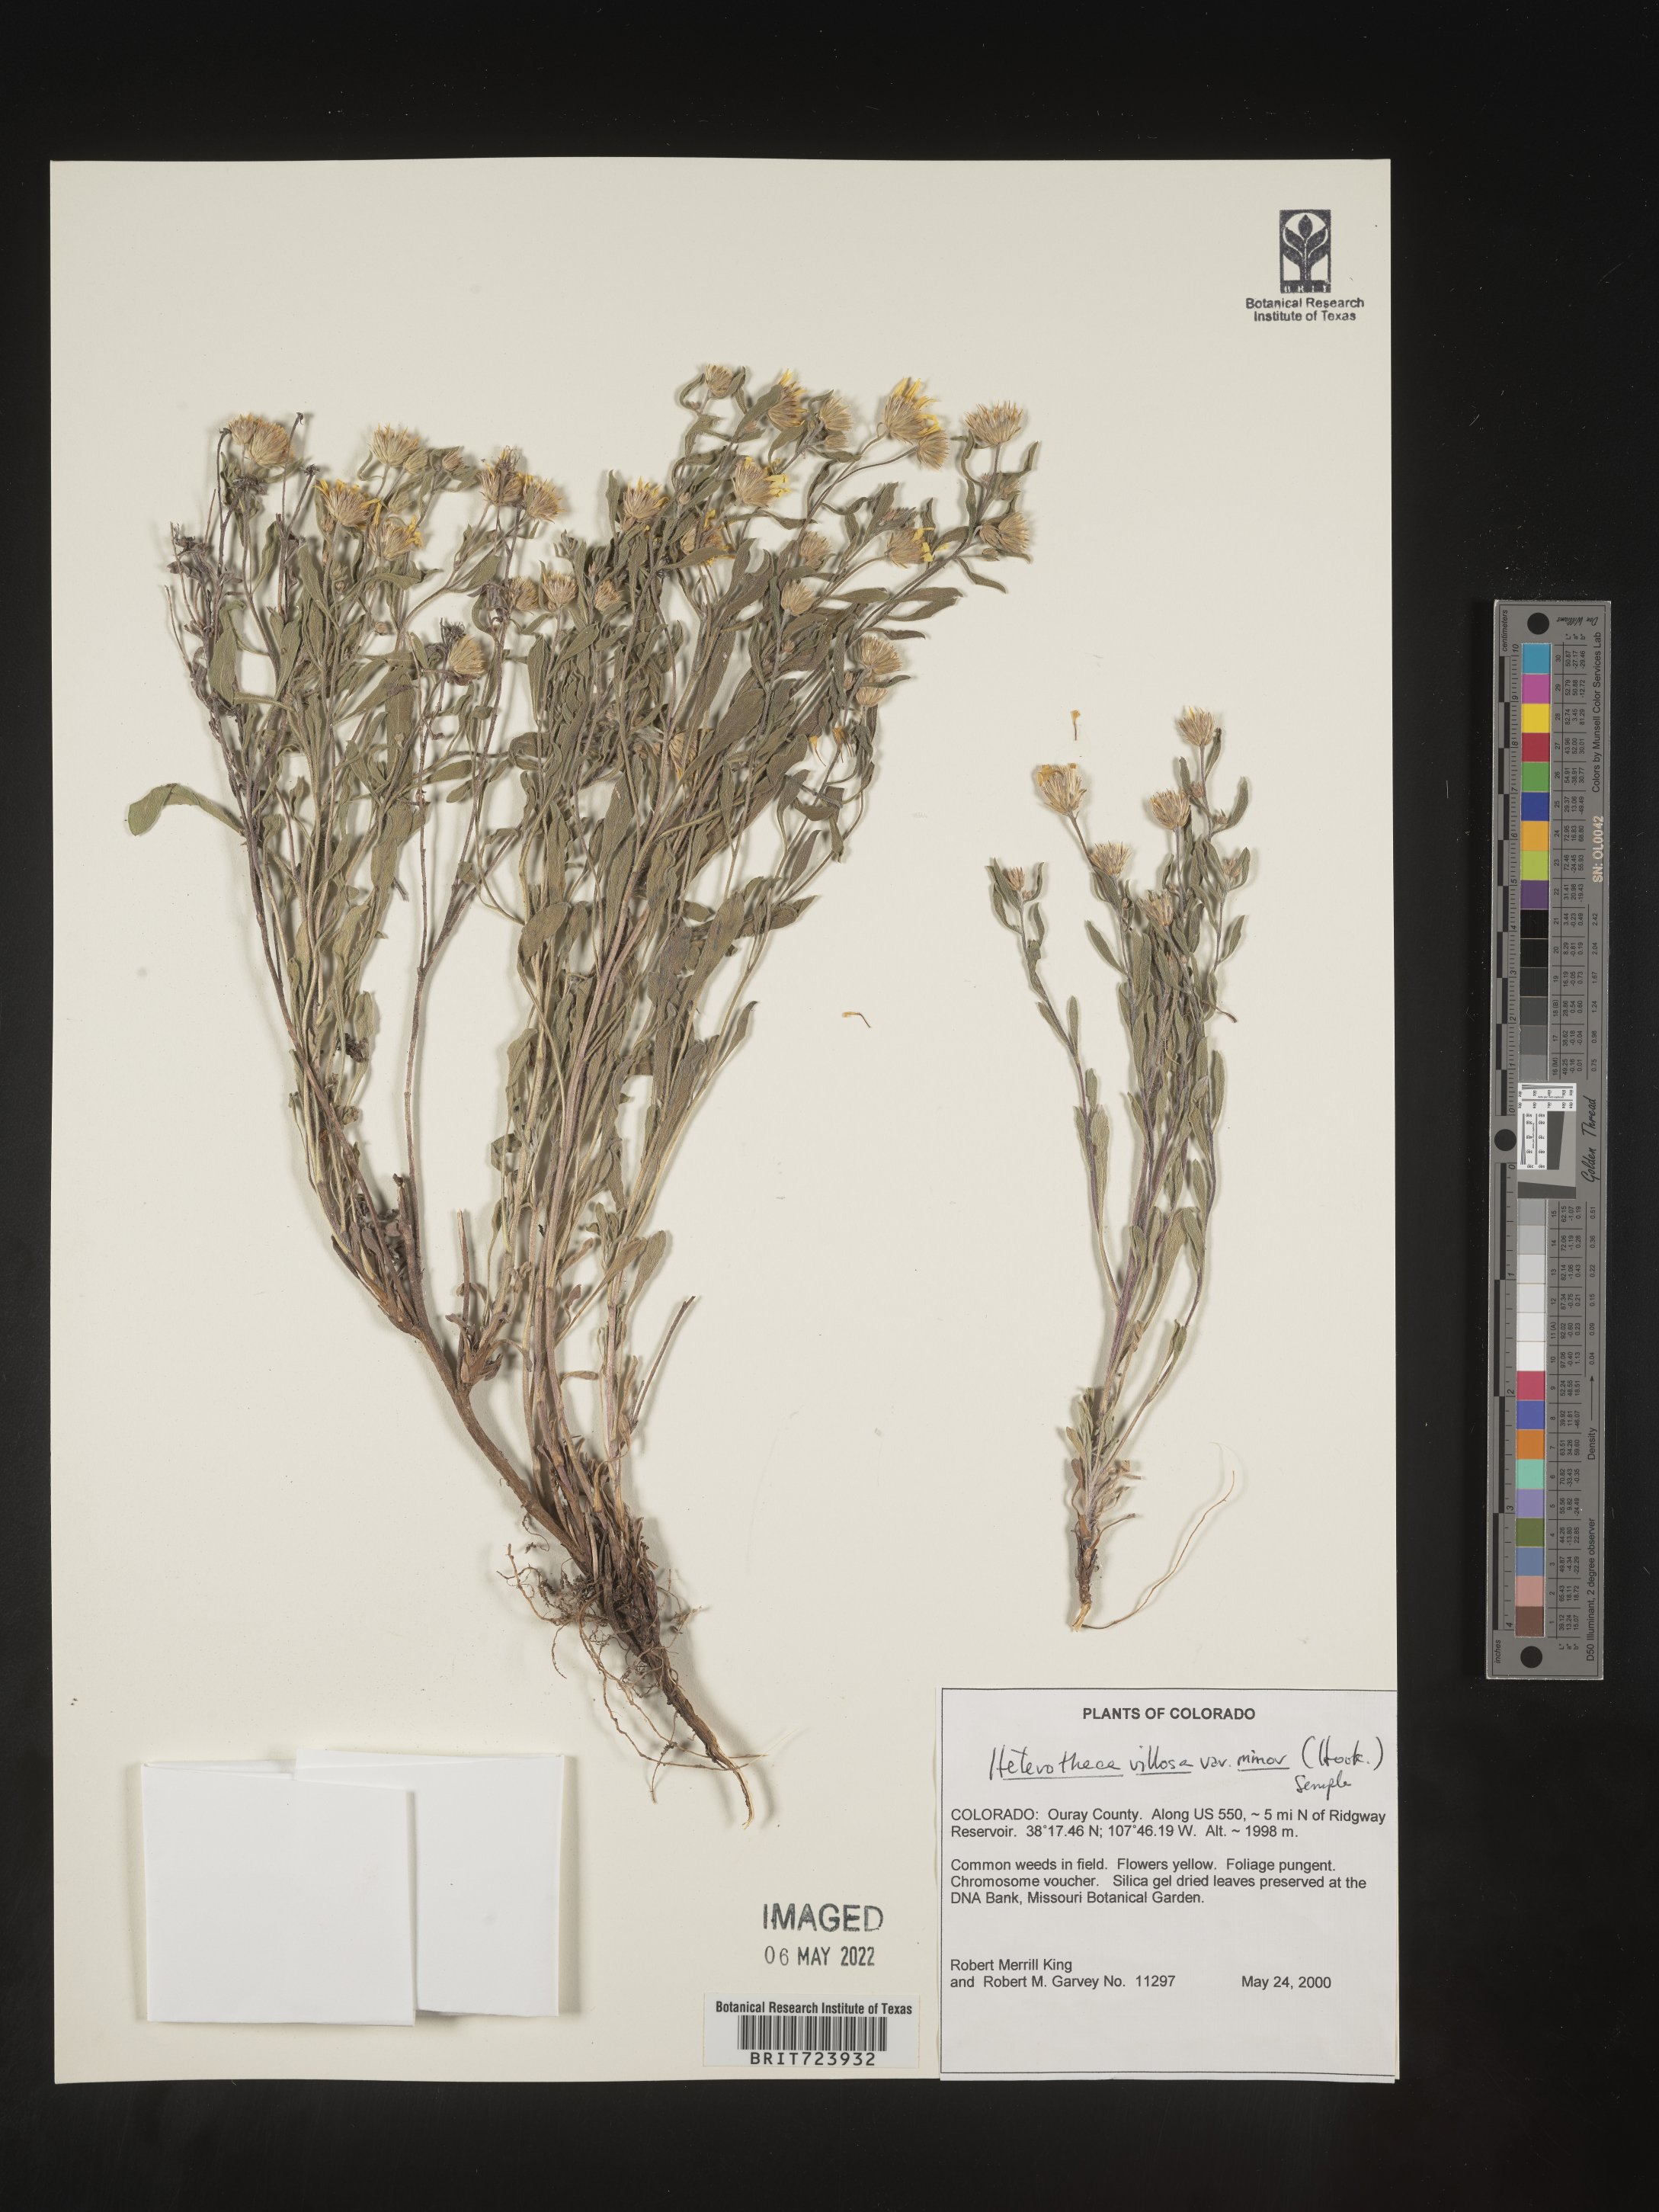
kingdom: Plantae
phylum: Tracheophyta
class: Magnoliopsida
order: Asterales
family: Asteraceae
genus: Heterotheca
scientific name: Heterotheca pedunculata
